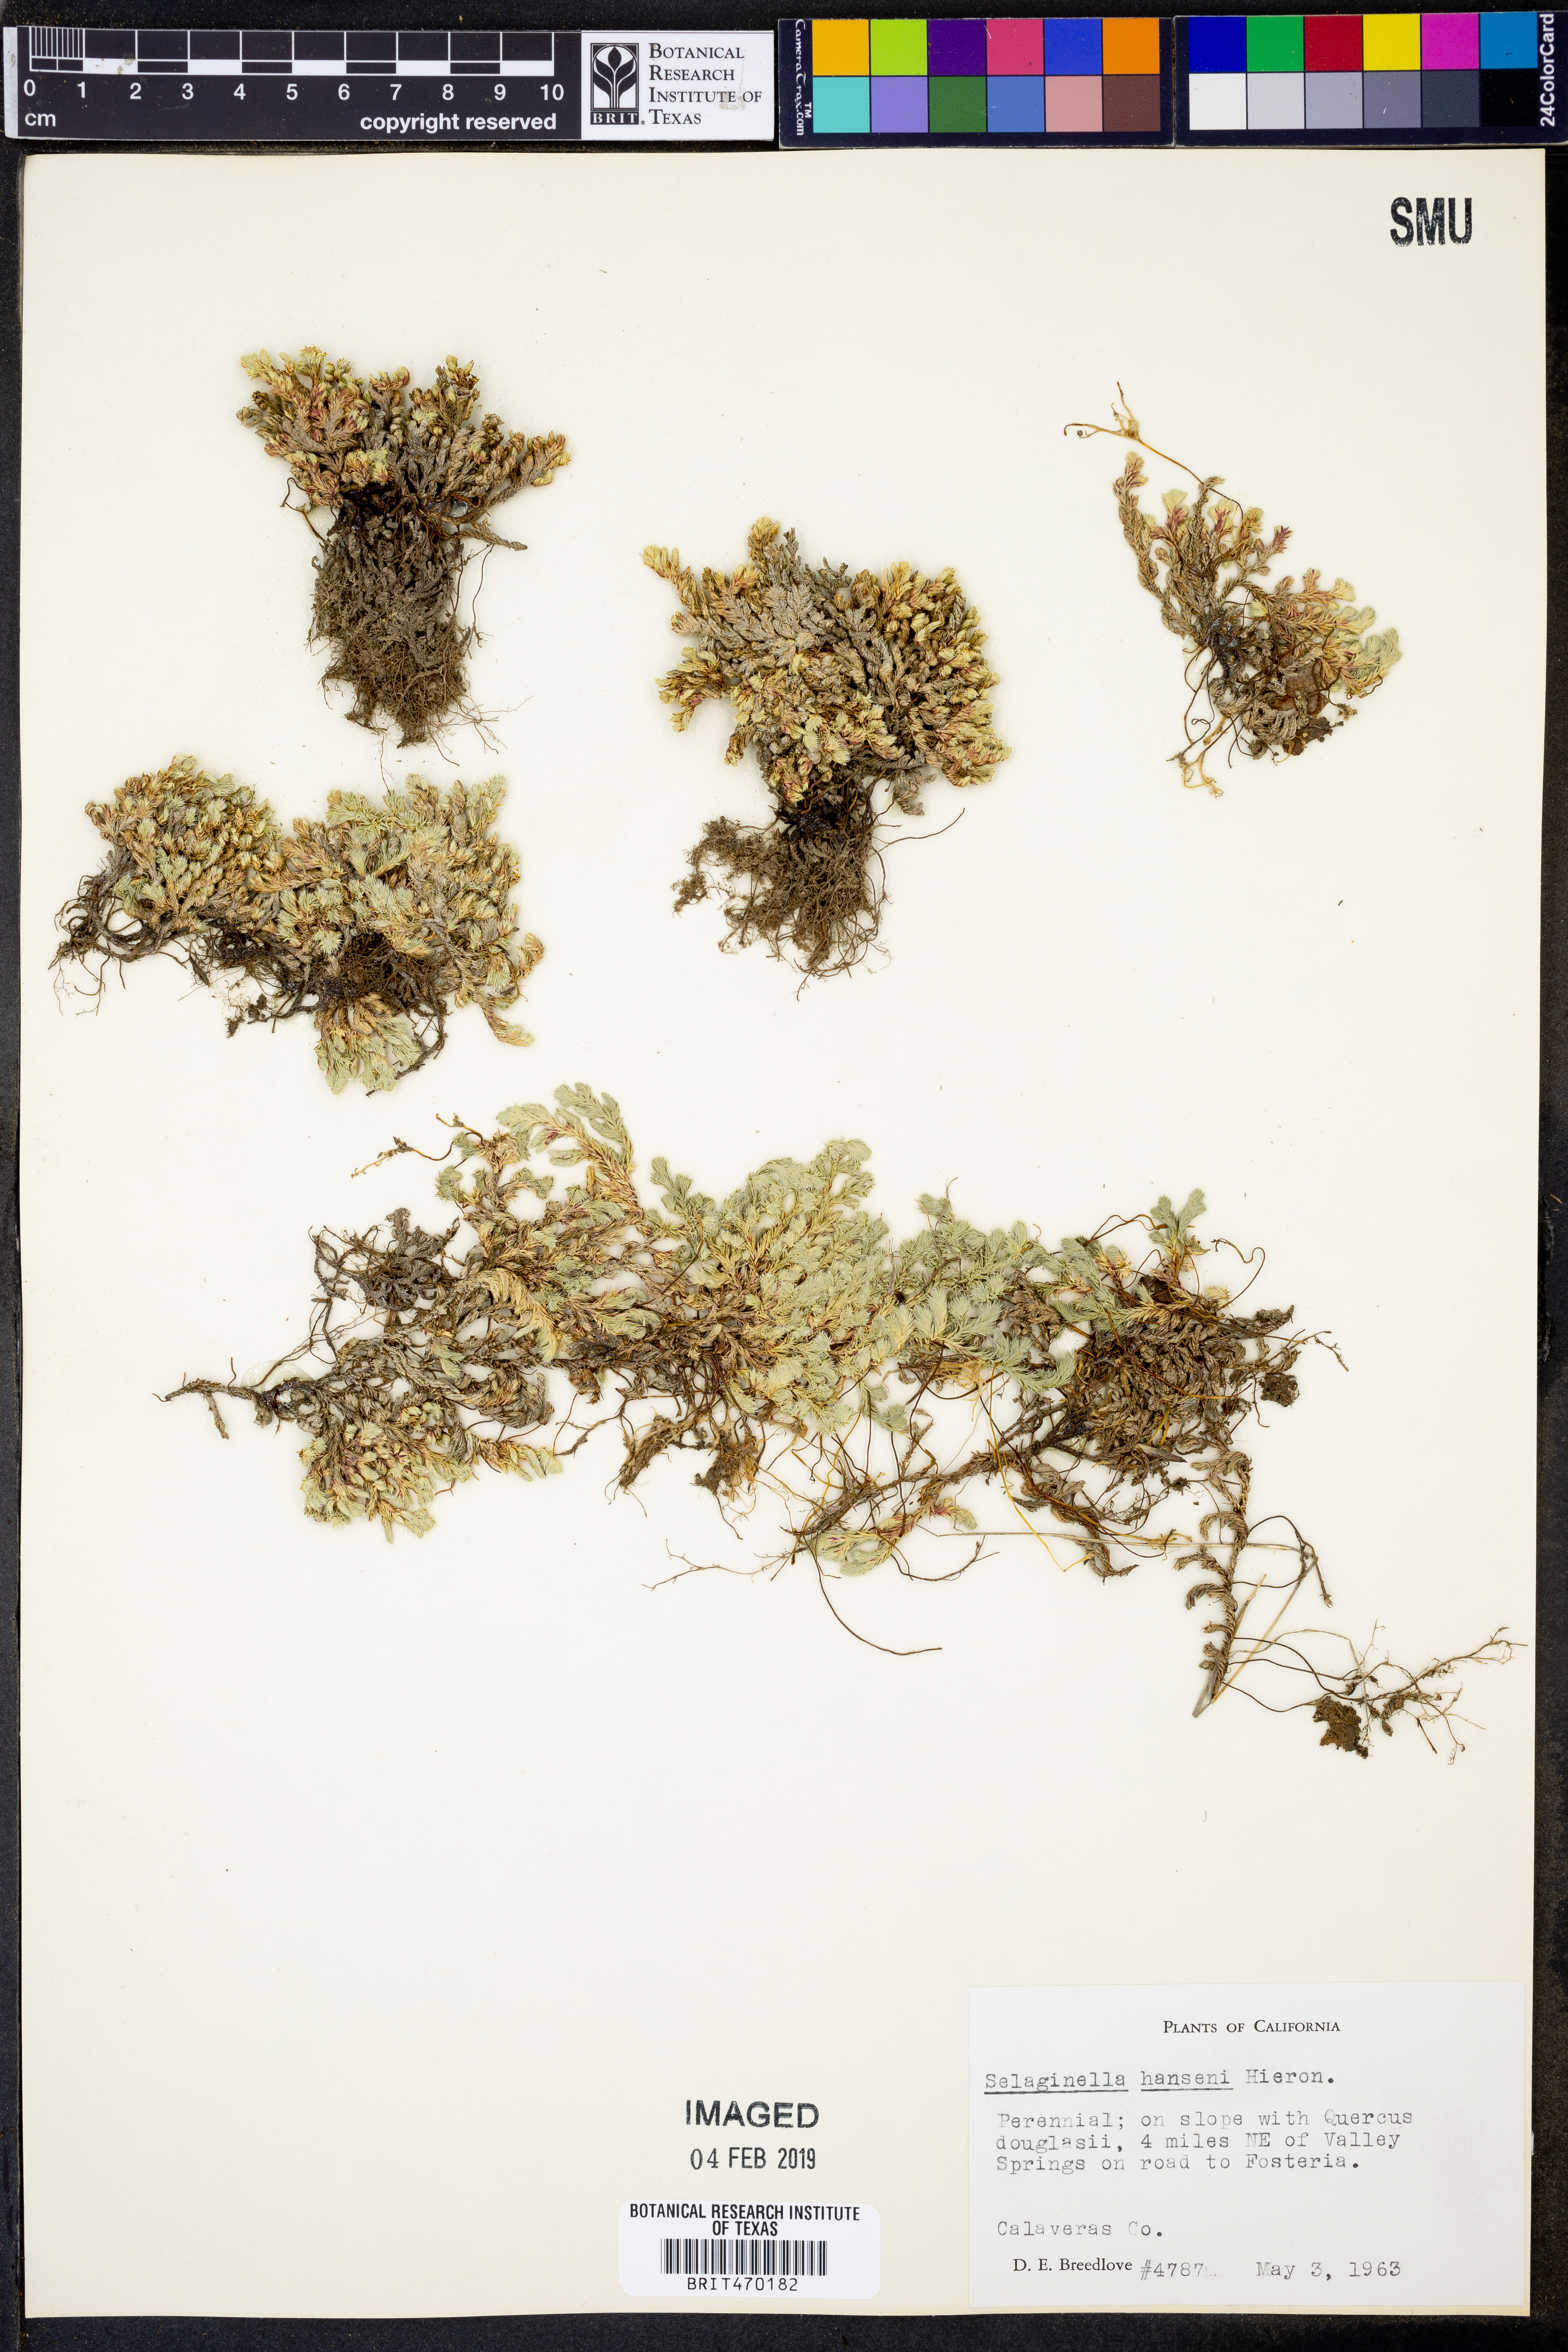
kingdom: Plantae
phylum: Tracheophyta
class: Lycopodiopsida
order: Selaginellales
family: Selaginellaceae
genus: Selaginella
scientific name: Selaginella hansenii
